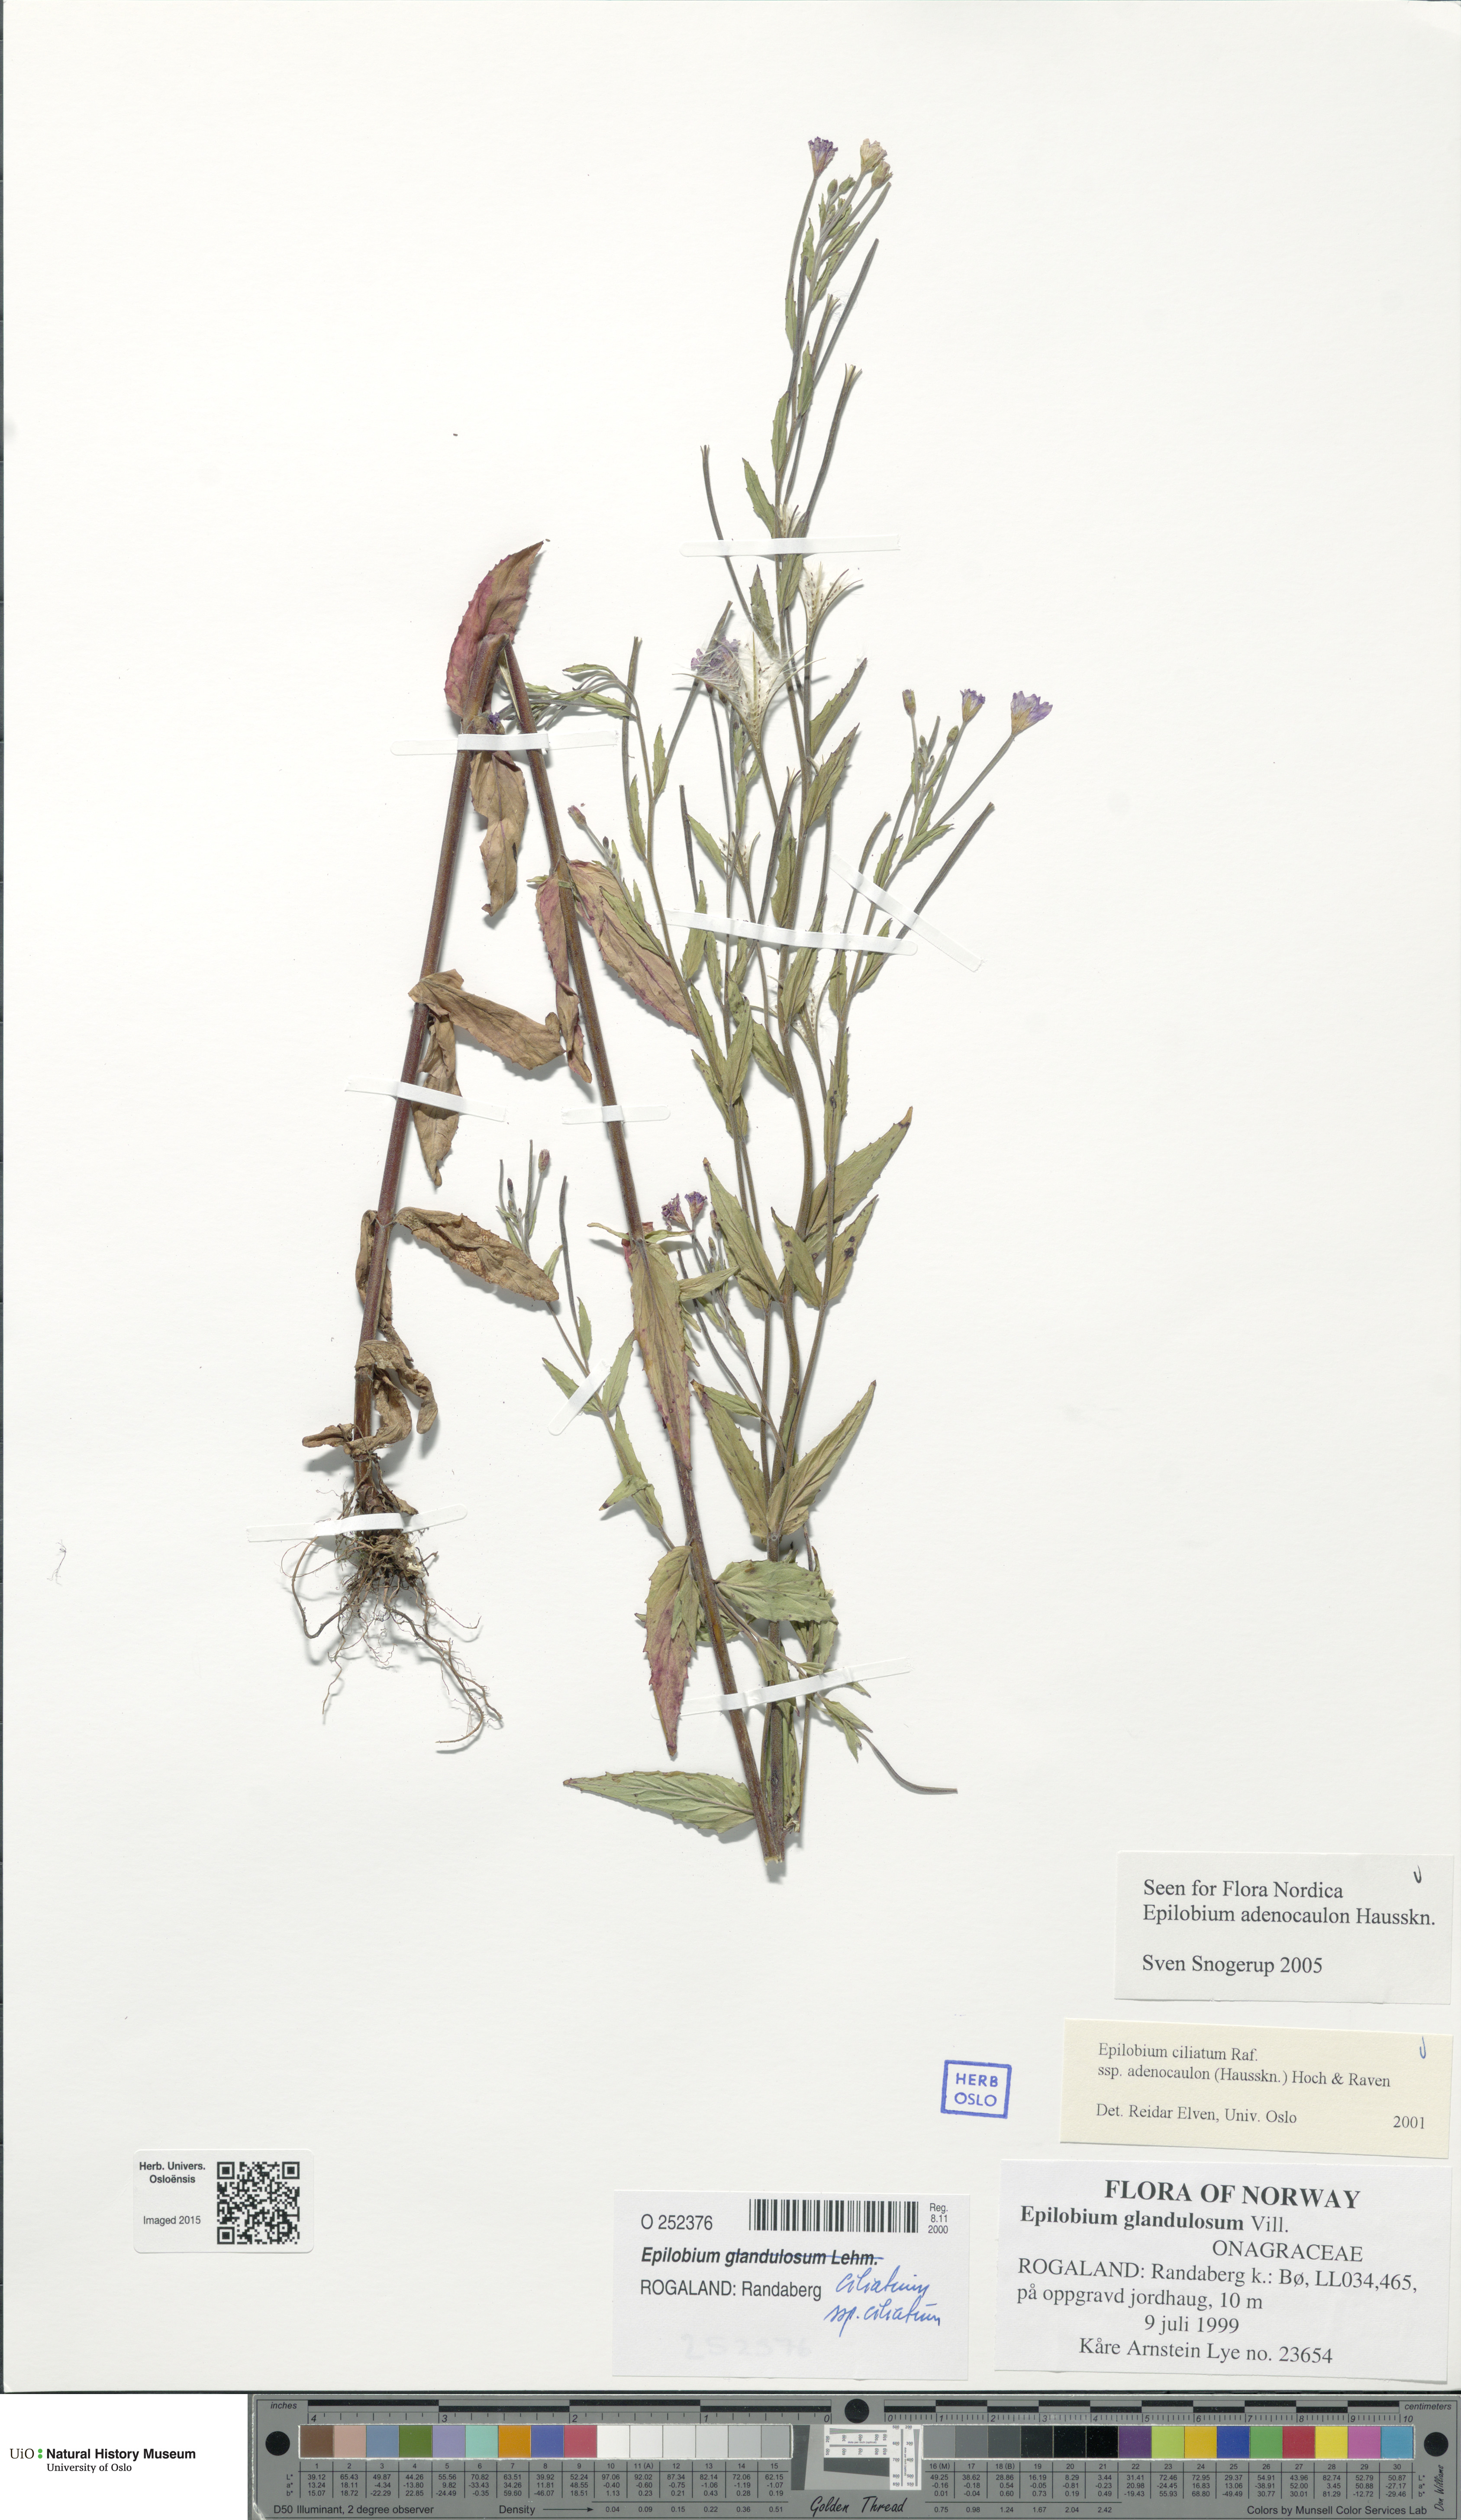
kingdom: Plantae
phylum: Tracheophyta
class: Magnoliopsida
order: Myrtales
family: Onagraceae
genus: Epilobium
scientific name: Epilobium ciliatum
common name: American willowherb
